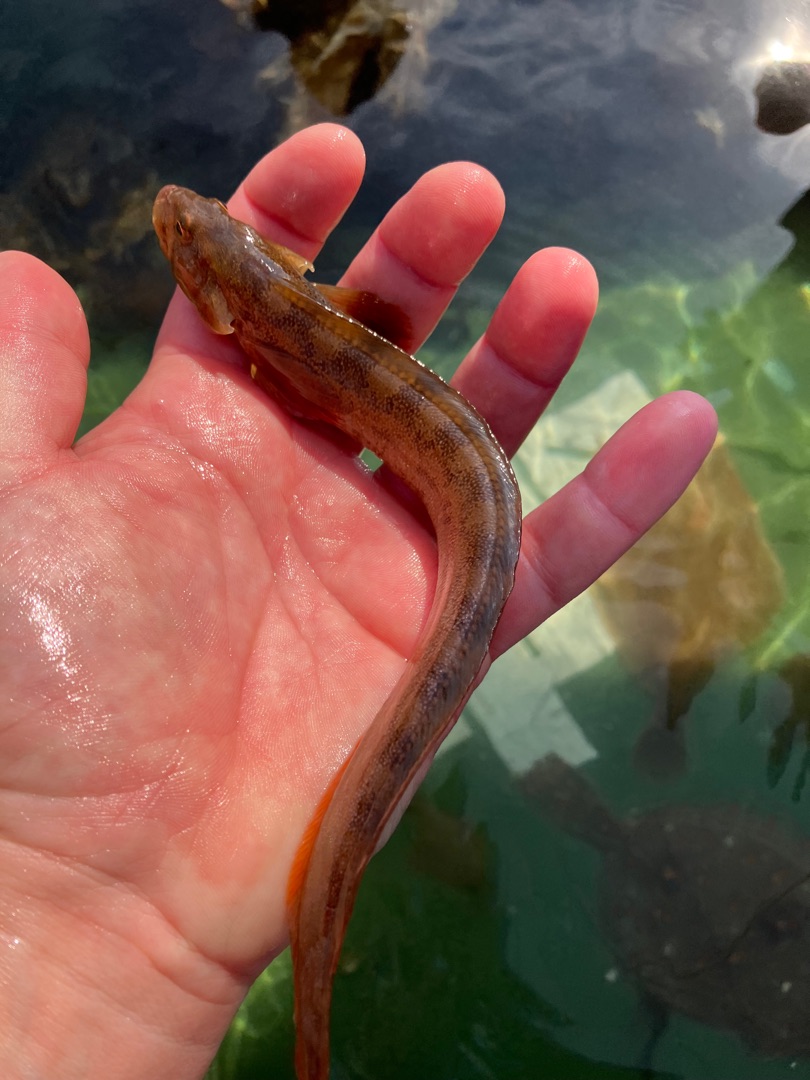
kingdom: Animalia
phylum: Chordata
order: Perciformes
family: Zoarcidae
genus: Zoarces
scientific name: Zoarces viviparus
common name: Ålekvabbe
